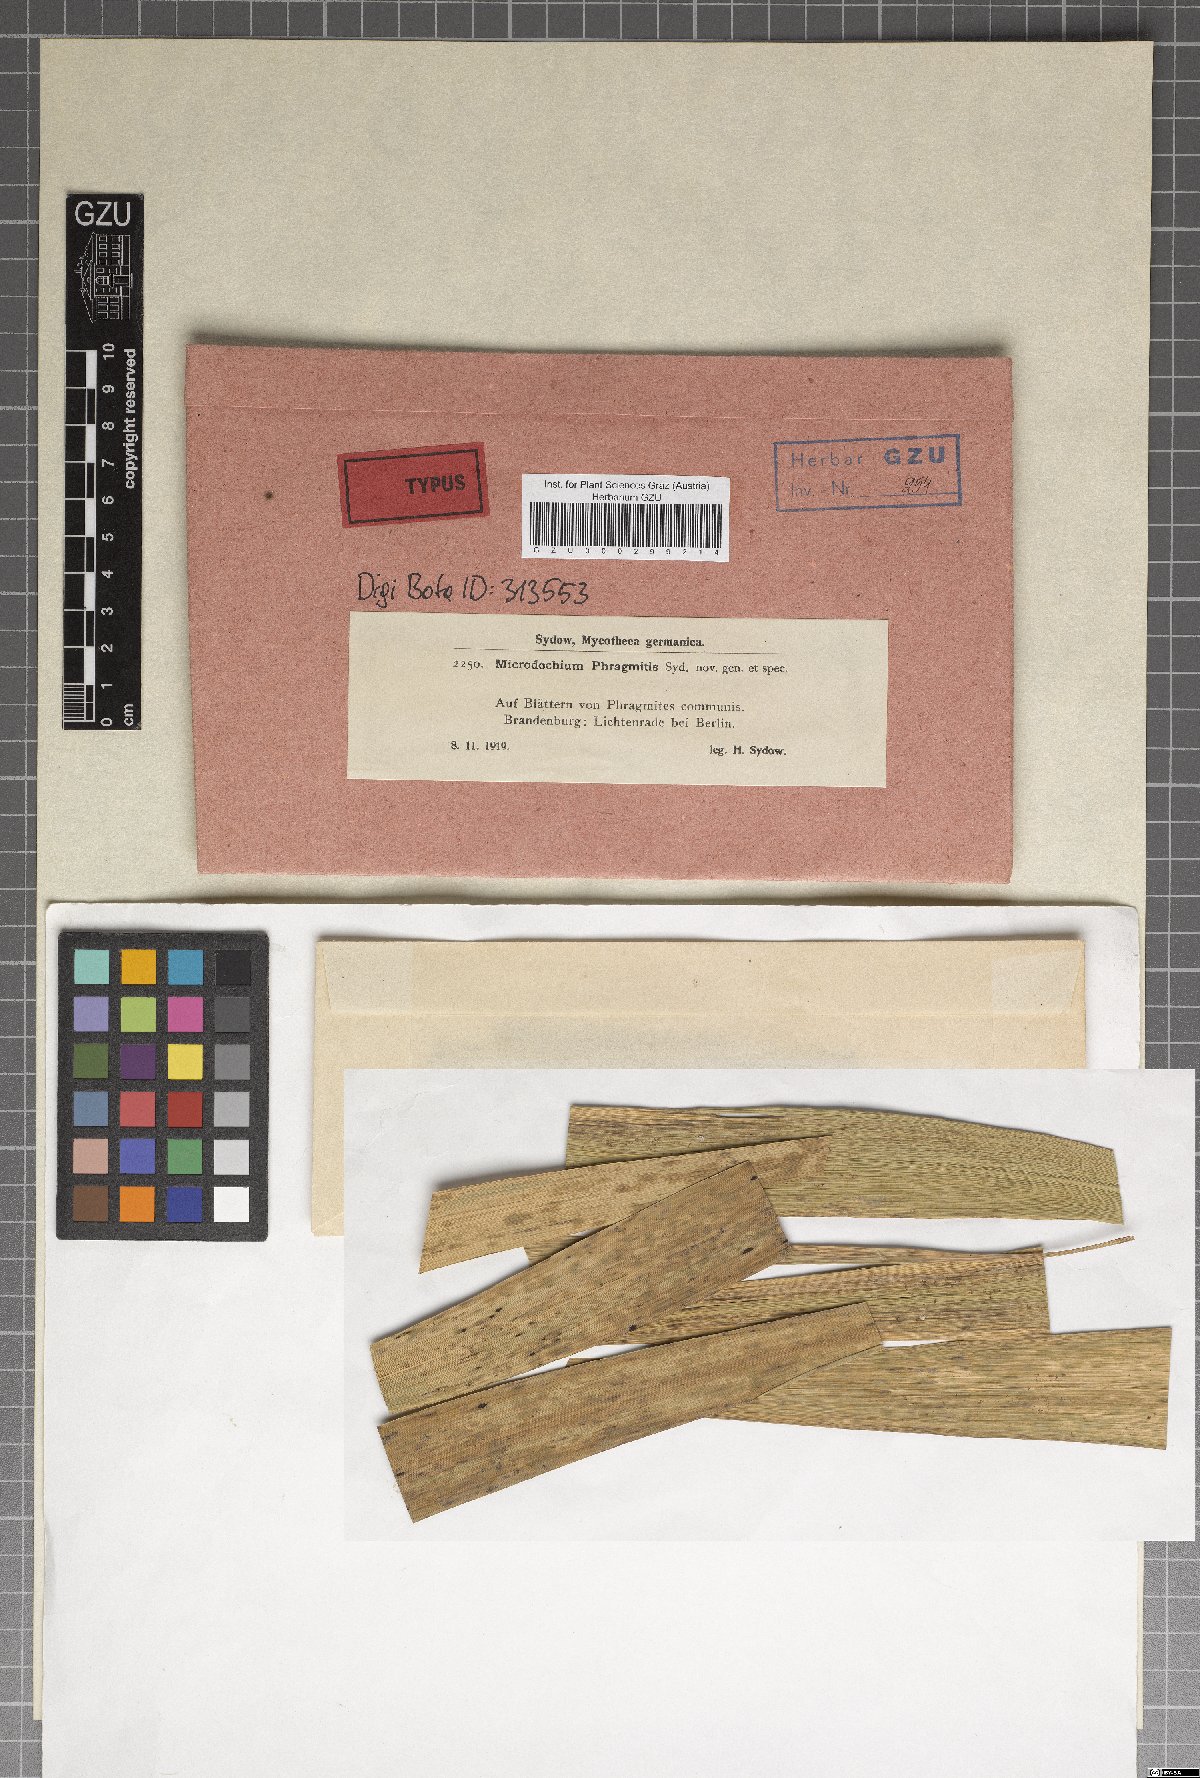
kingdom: Fungi
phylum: Ascomycota
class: Sordariomycetes
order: Amphisphaeriales
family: Amphisphaeriaceae
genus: Microdochium
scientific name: Microdochium phragmitis
